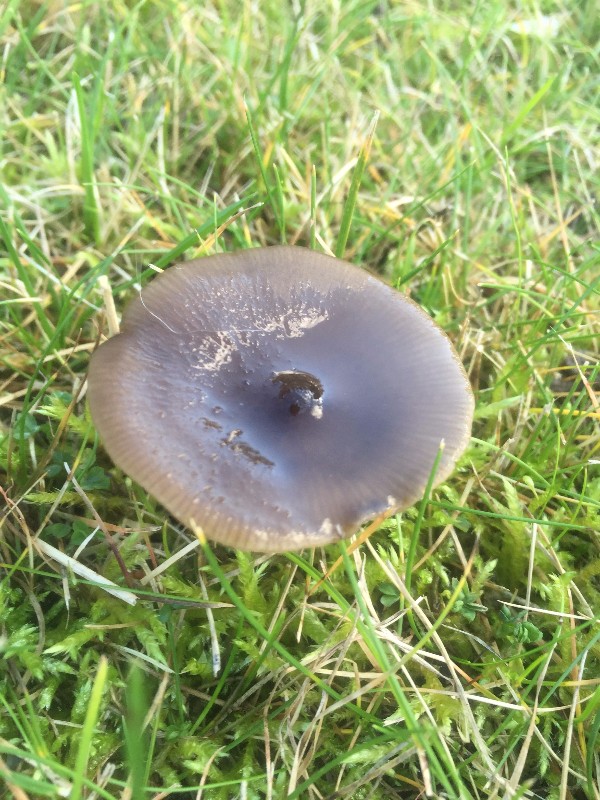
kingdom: Fungi
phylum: Basidiomycota
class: Agaricomycetes
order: Agaricales
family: Entolomataceae
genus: Entoloma
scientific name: Entoloma sericeum
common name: silkeglinsende rødblad
